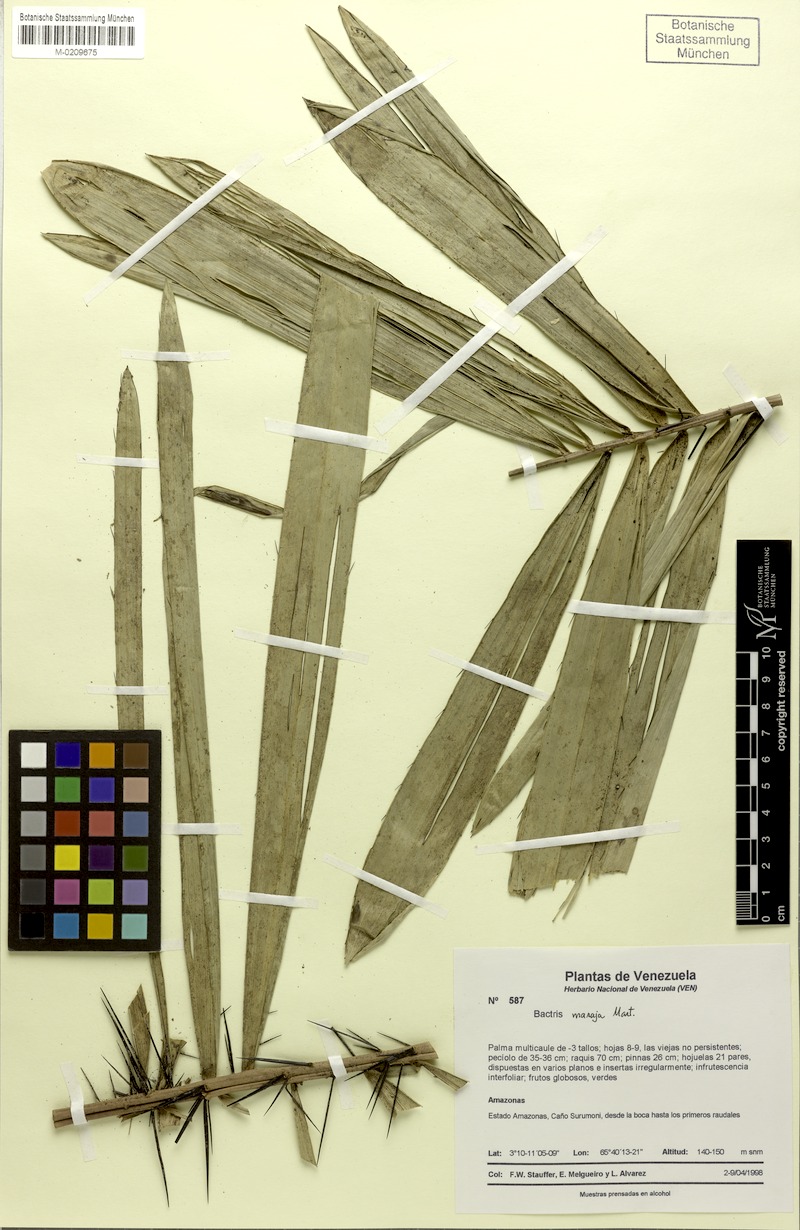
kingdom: Plantae
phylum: Tracheophyta
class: Liliopsida
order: Arecales
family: Arecaceae
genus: Bactris
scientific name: Bactris maraja
